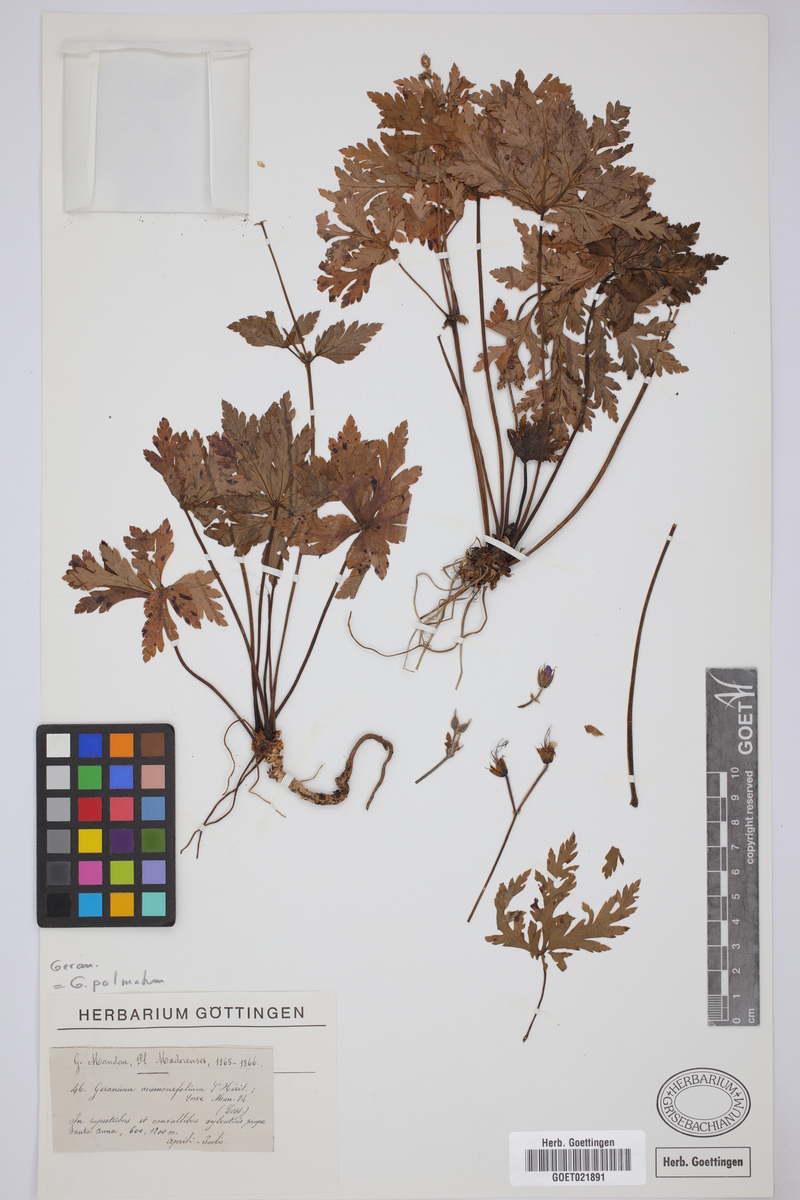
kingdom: Plantae
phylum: Tracheophyta
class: Magnoliopsida
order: Geraniales
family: Geraniaceae
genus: Geranium
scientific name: Geranium palmatum
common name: Canary island geranium
